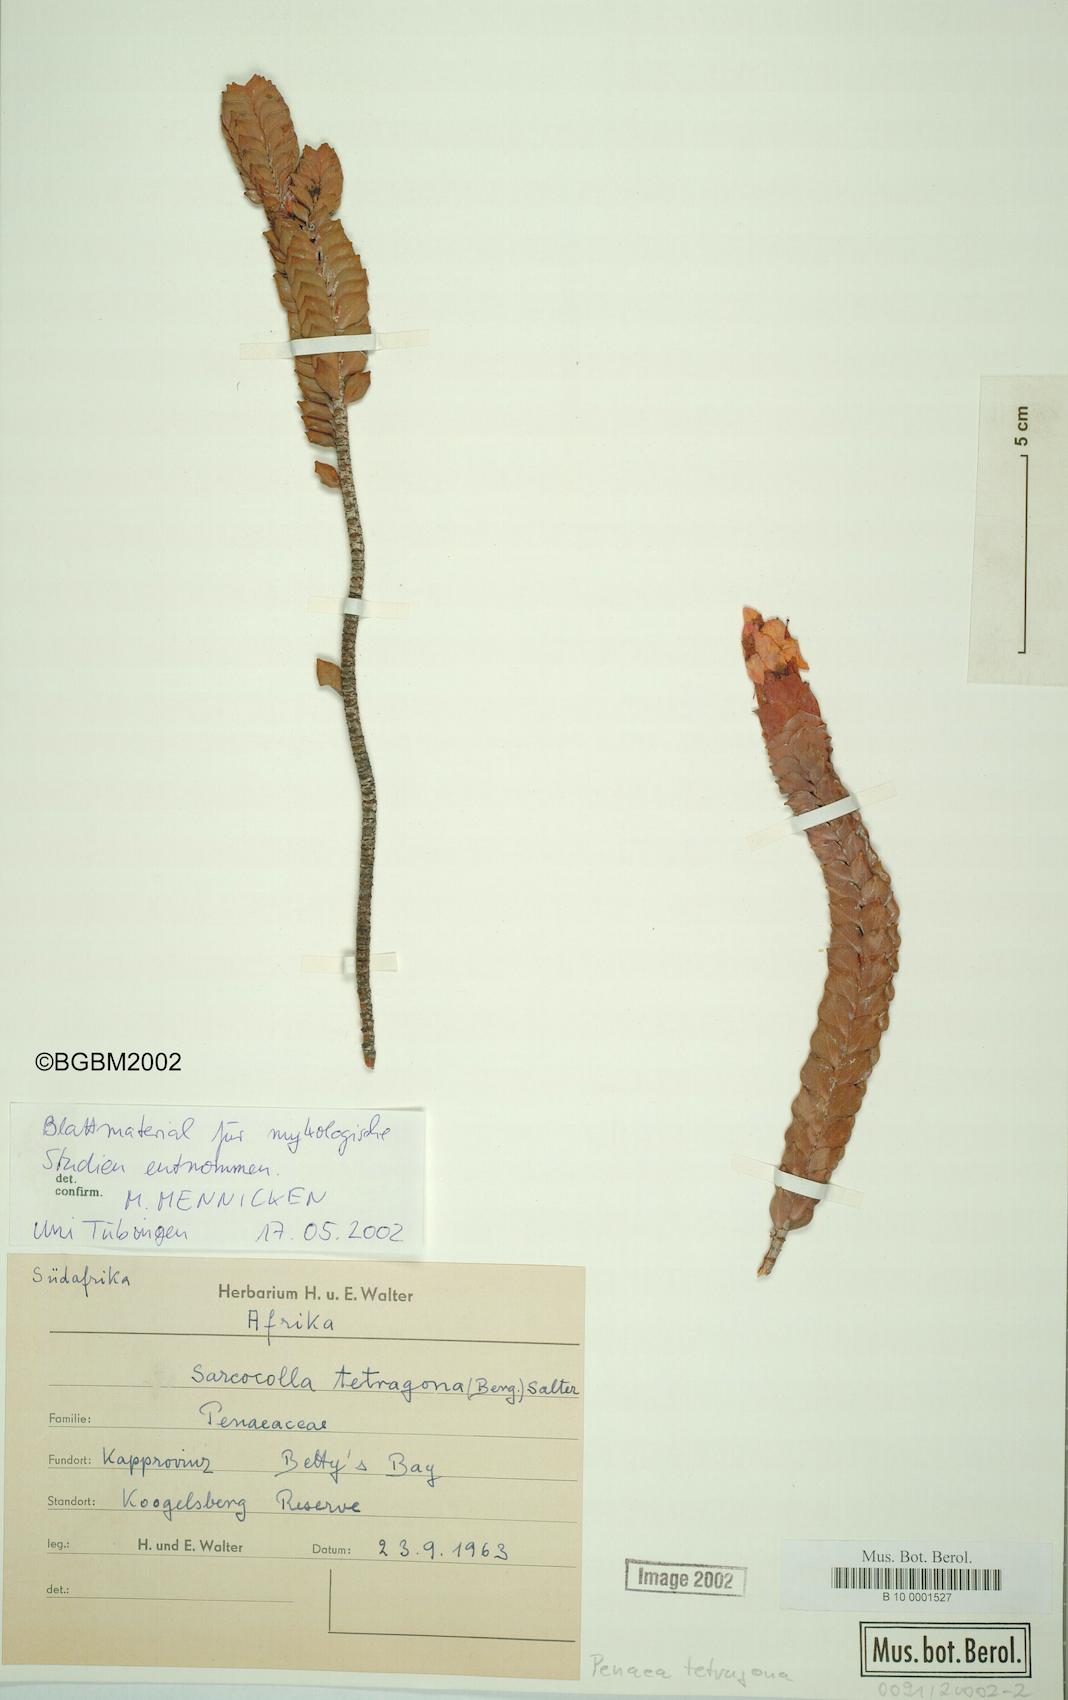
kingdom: Plantae
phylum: Tracheophyta
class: Magnoliopsida
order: Myrtales
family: Penaeaceae
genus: Saltera
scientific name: Saltera sarcocolla
